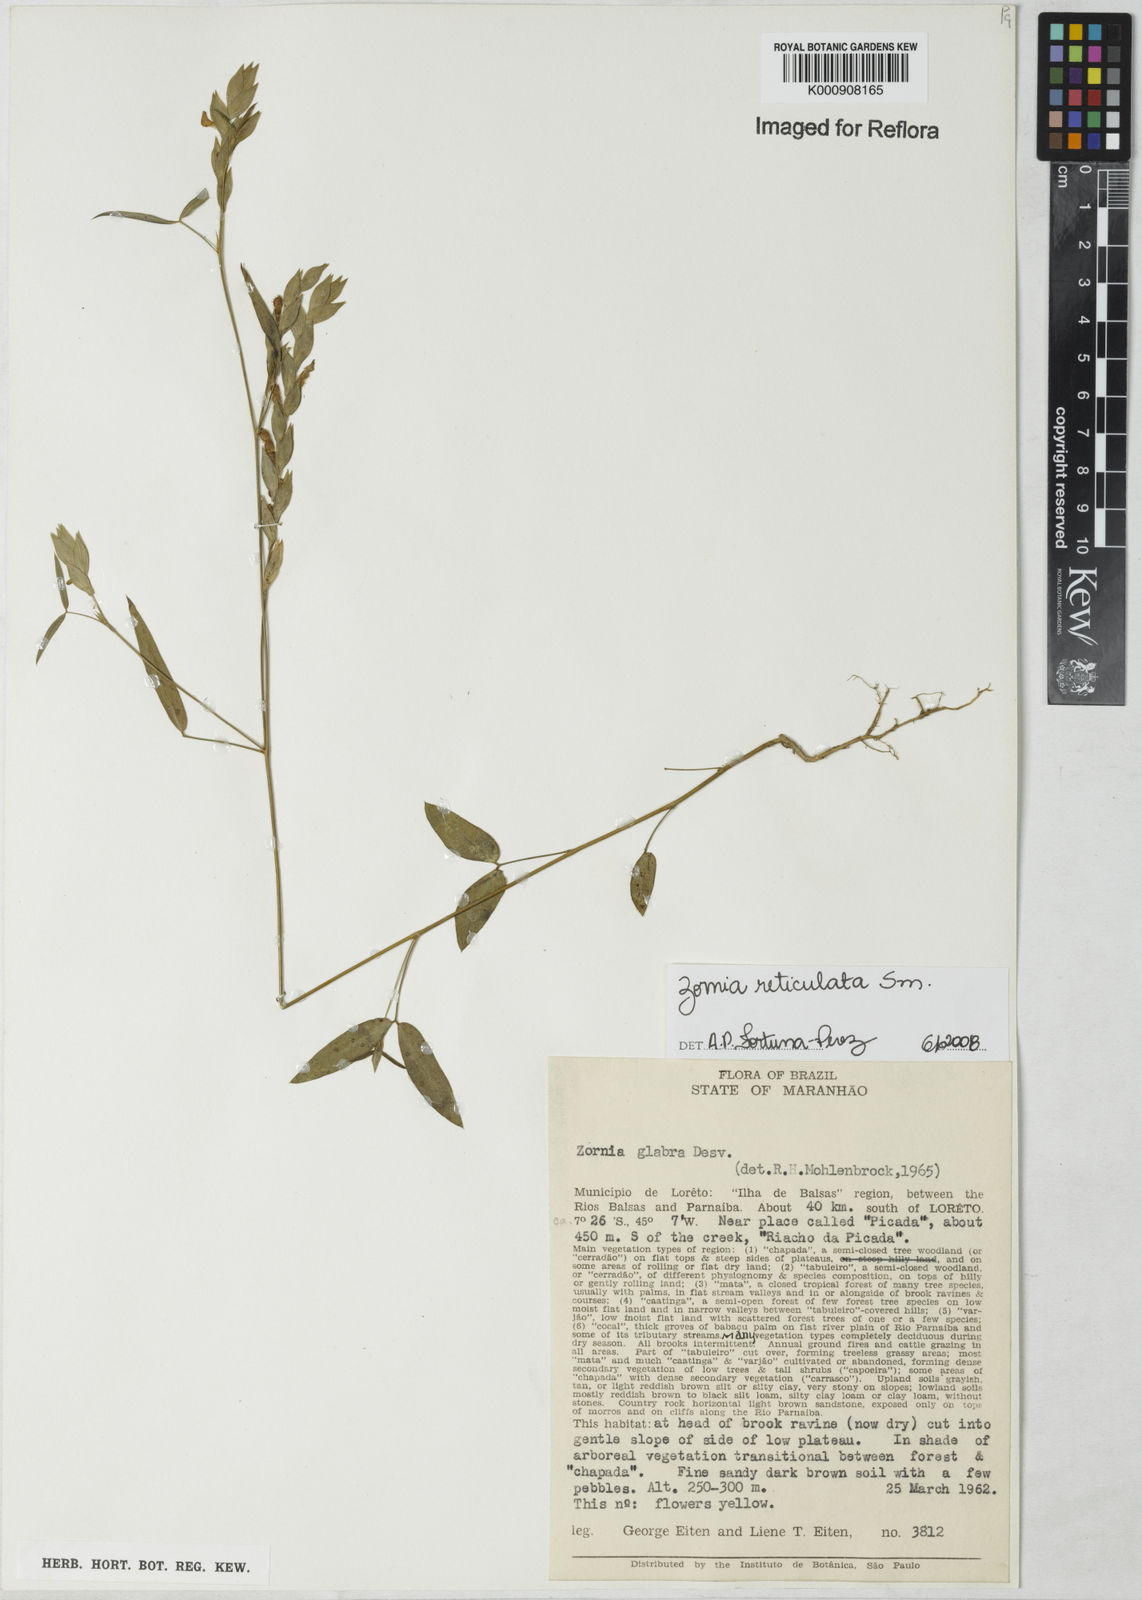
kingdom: Plantae
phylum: Tracheophyta
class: Magnoliopsida
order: Fabales
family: Fabaceae
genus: Zornia
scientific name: Zornia reticulata
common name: Reticulate viperina
